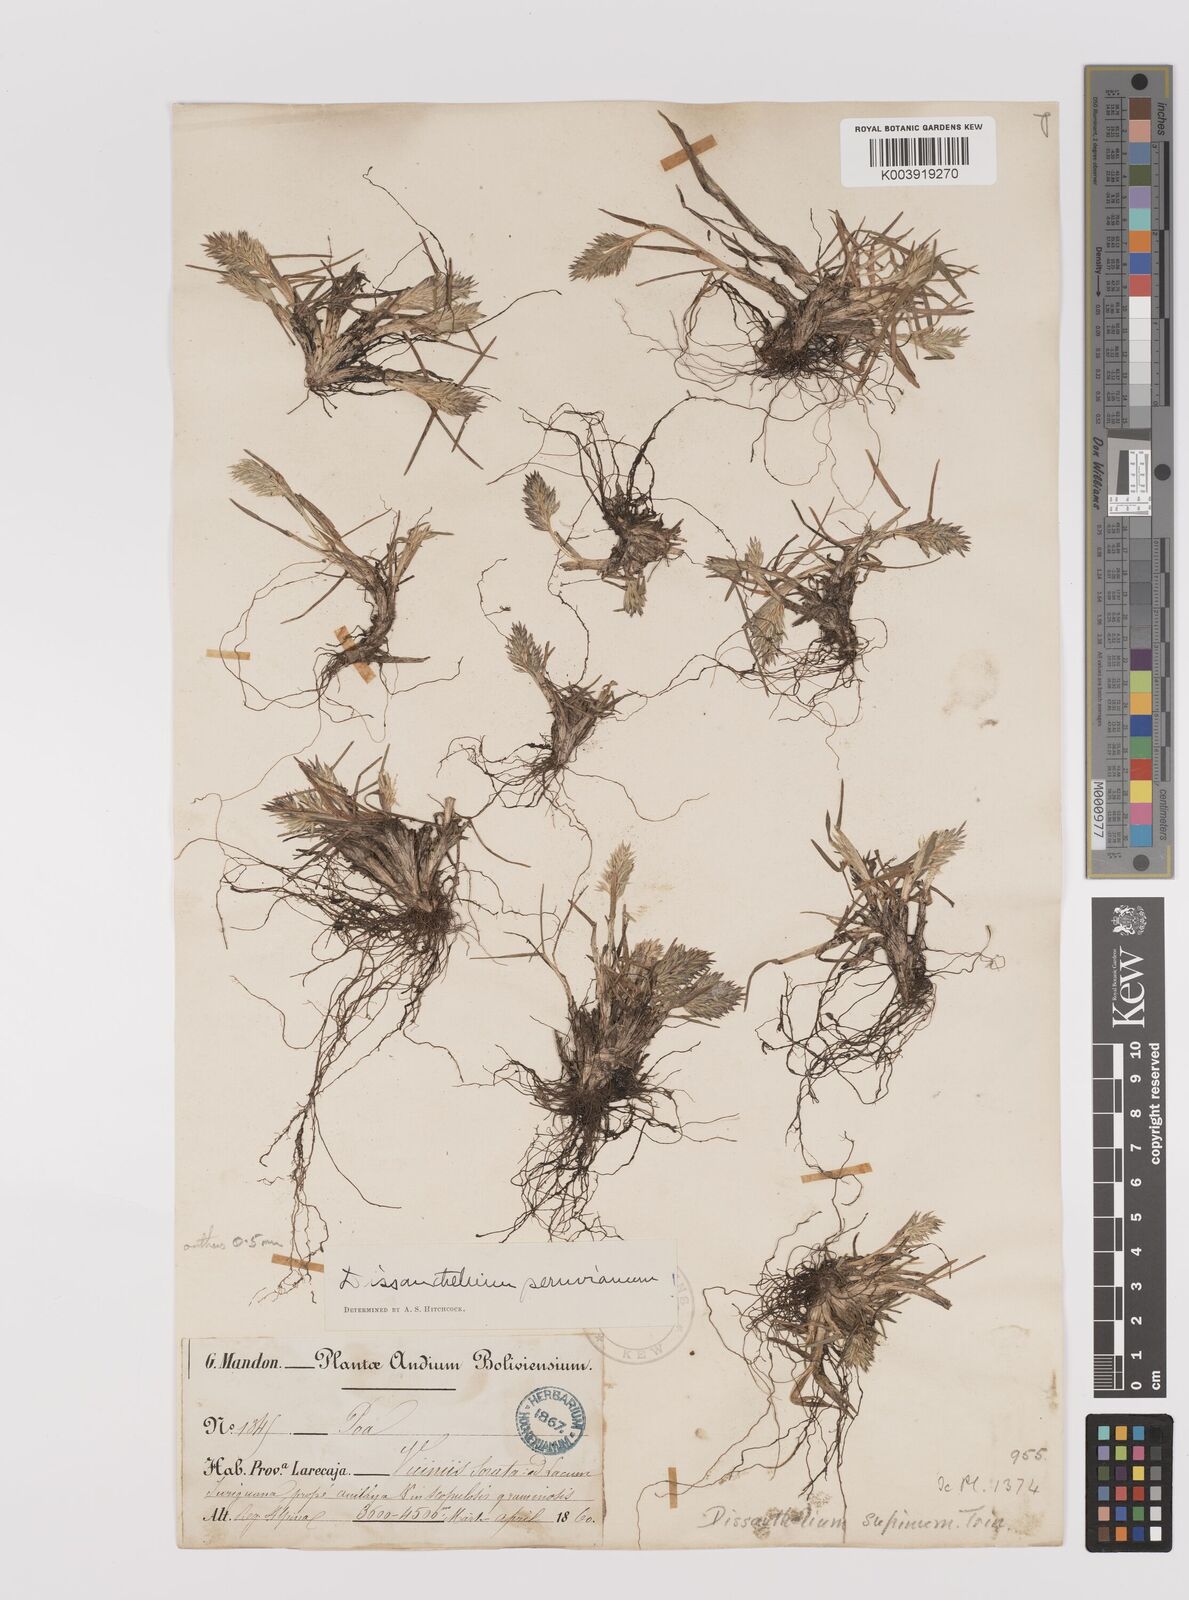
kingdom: Plantae
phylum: Tracheophyta
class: Liliopsida
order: Poales
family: Poaceae
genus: Poa
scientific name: Poa calycina
